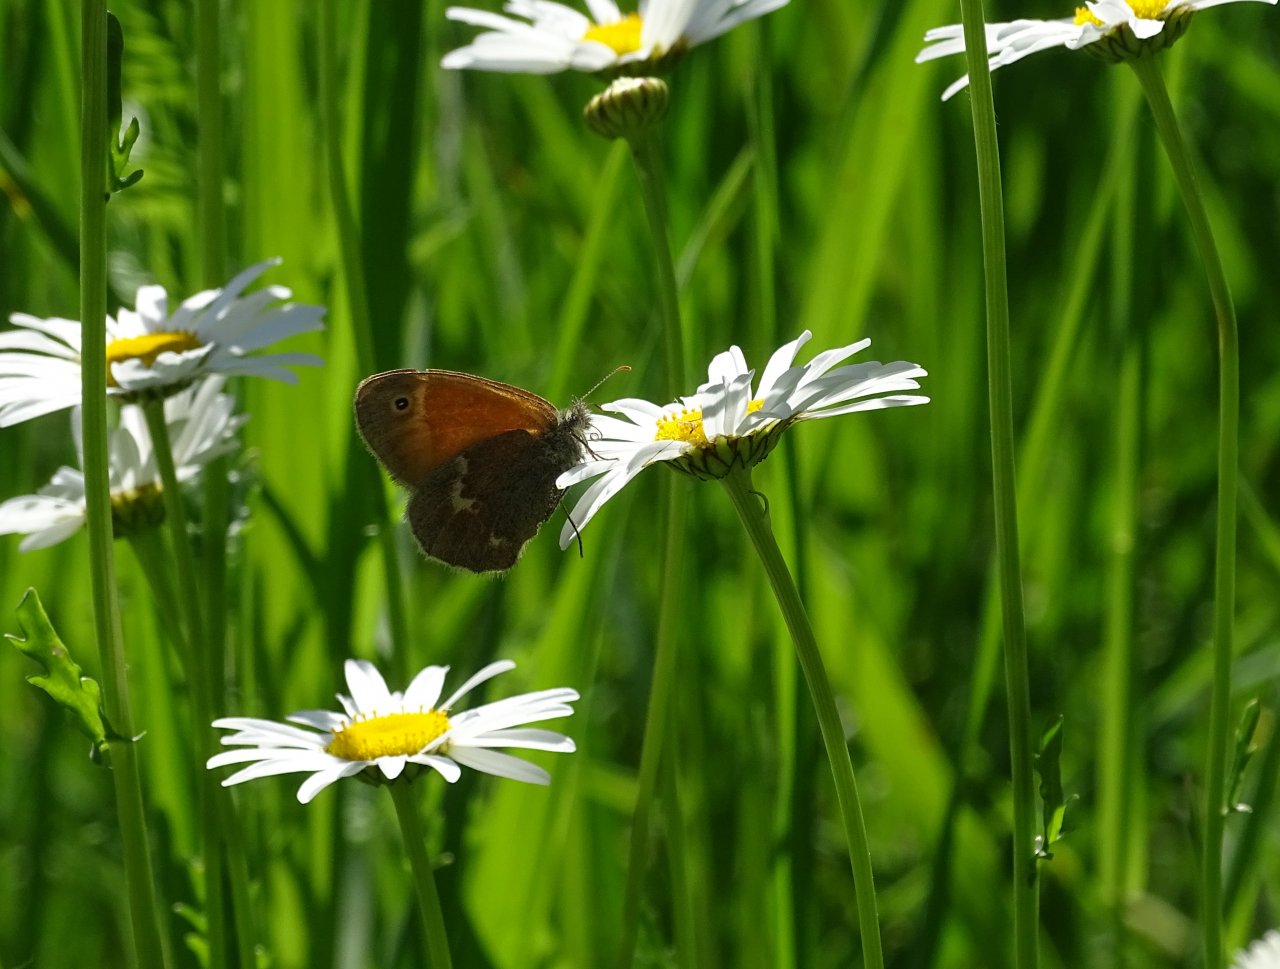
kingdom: Animalia
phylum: Arthropoda
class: Insecta
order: Lepidoptera
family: Nymphalidae
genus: Coenonympha
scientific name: Coenonympha tullia
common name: Large Heath
